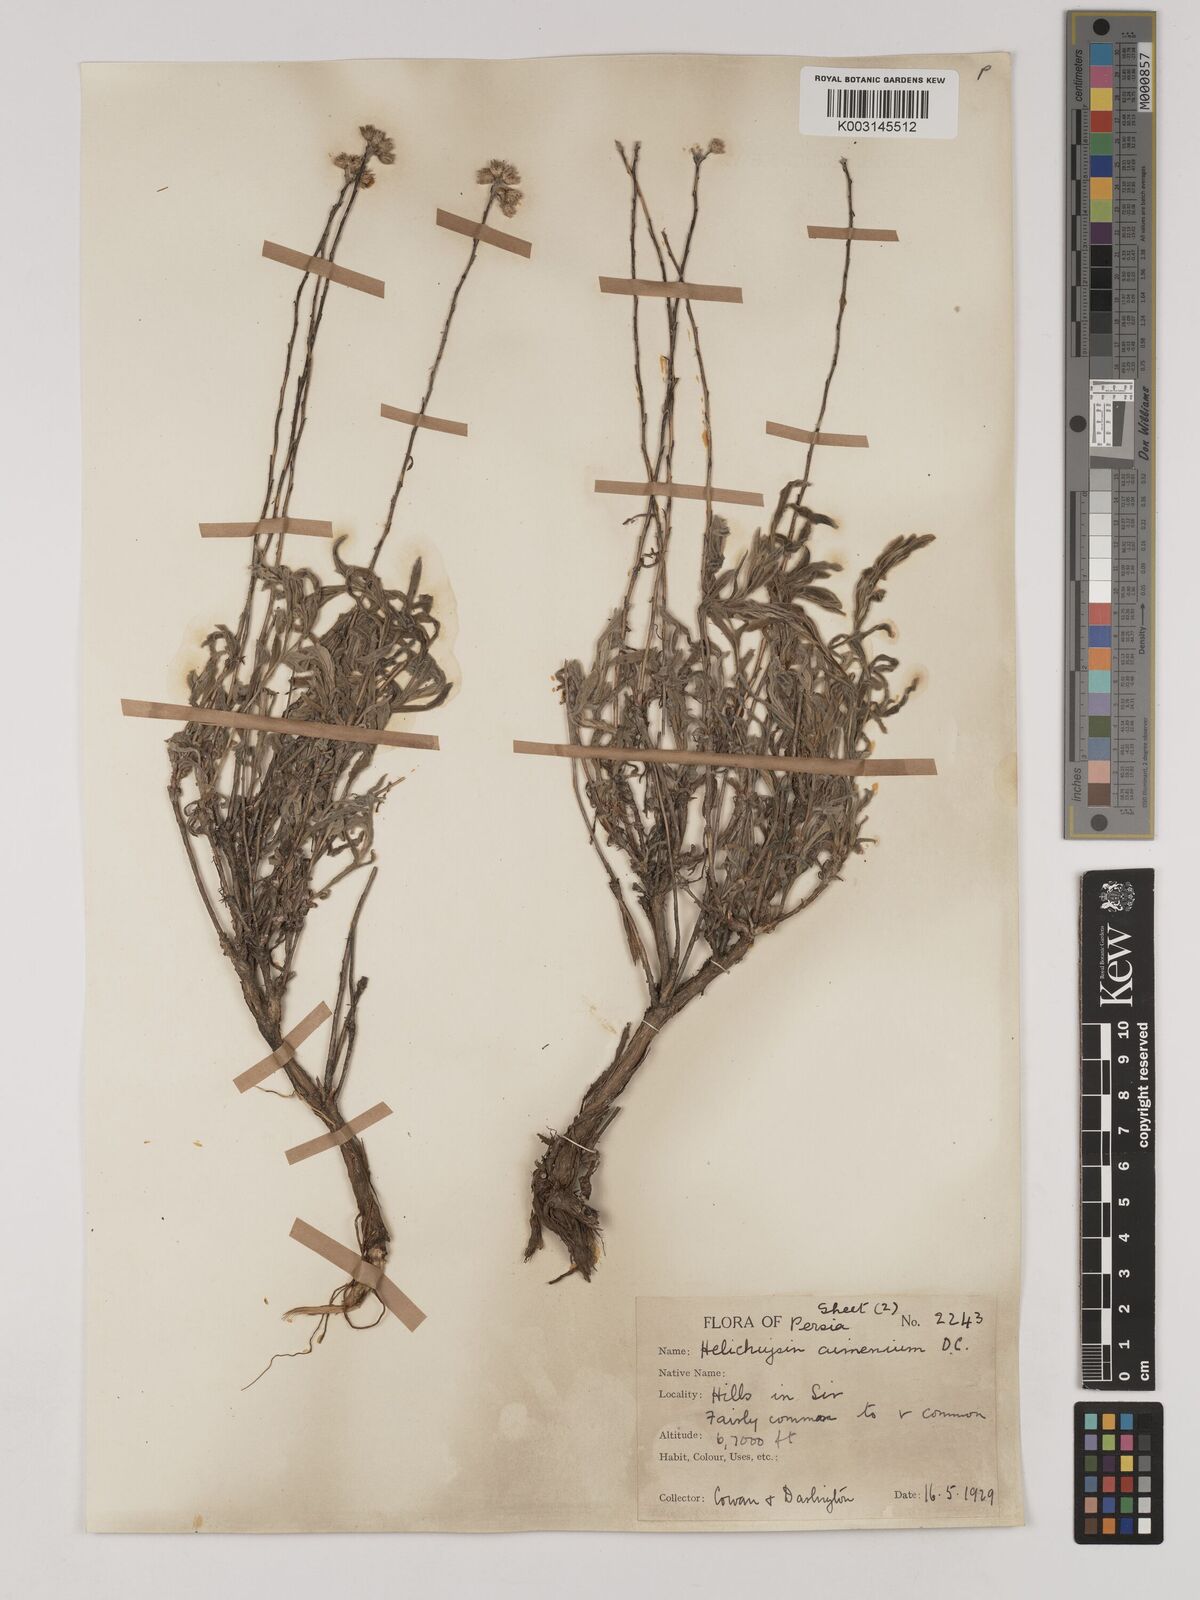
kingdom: Plantae
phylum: Tracheophyta
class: Magnoliopsida
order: Asterales
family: Asteraceae
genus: Helichrysum
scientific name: Helichrysum armenium
